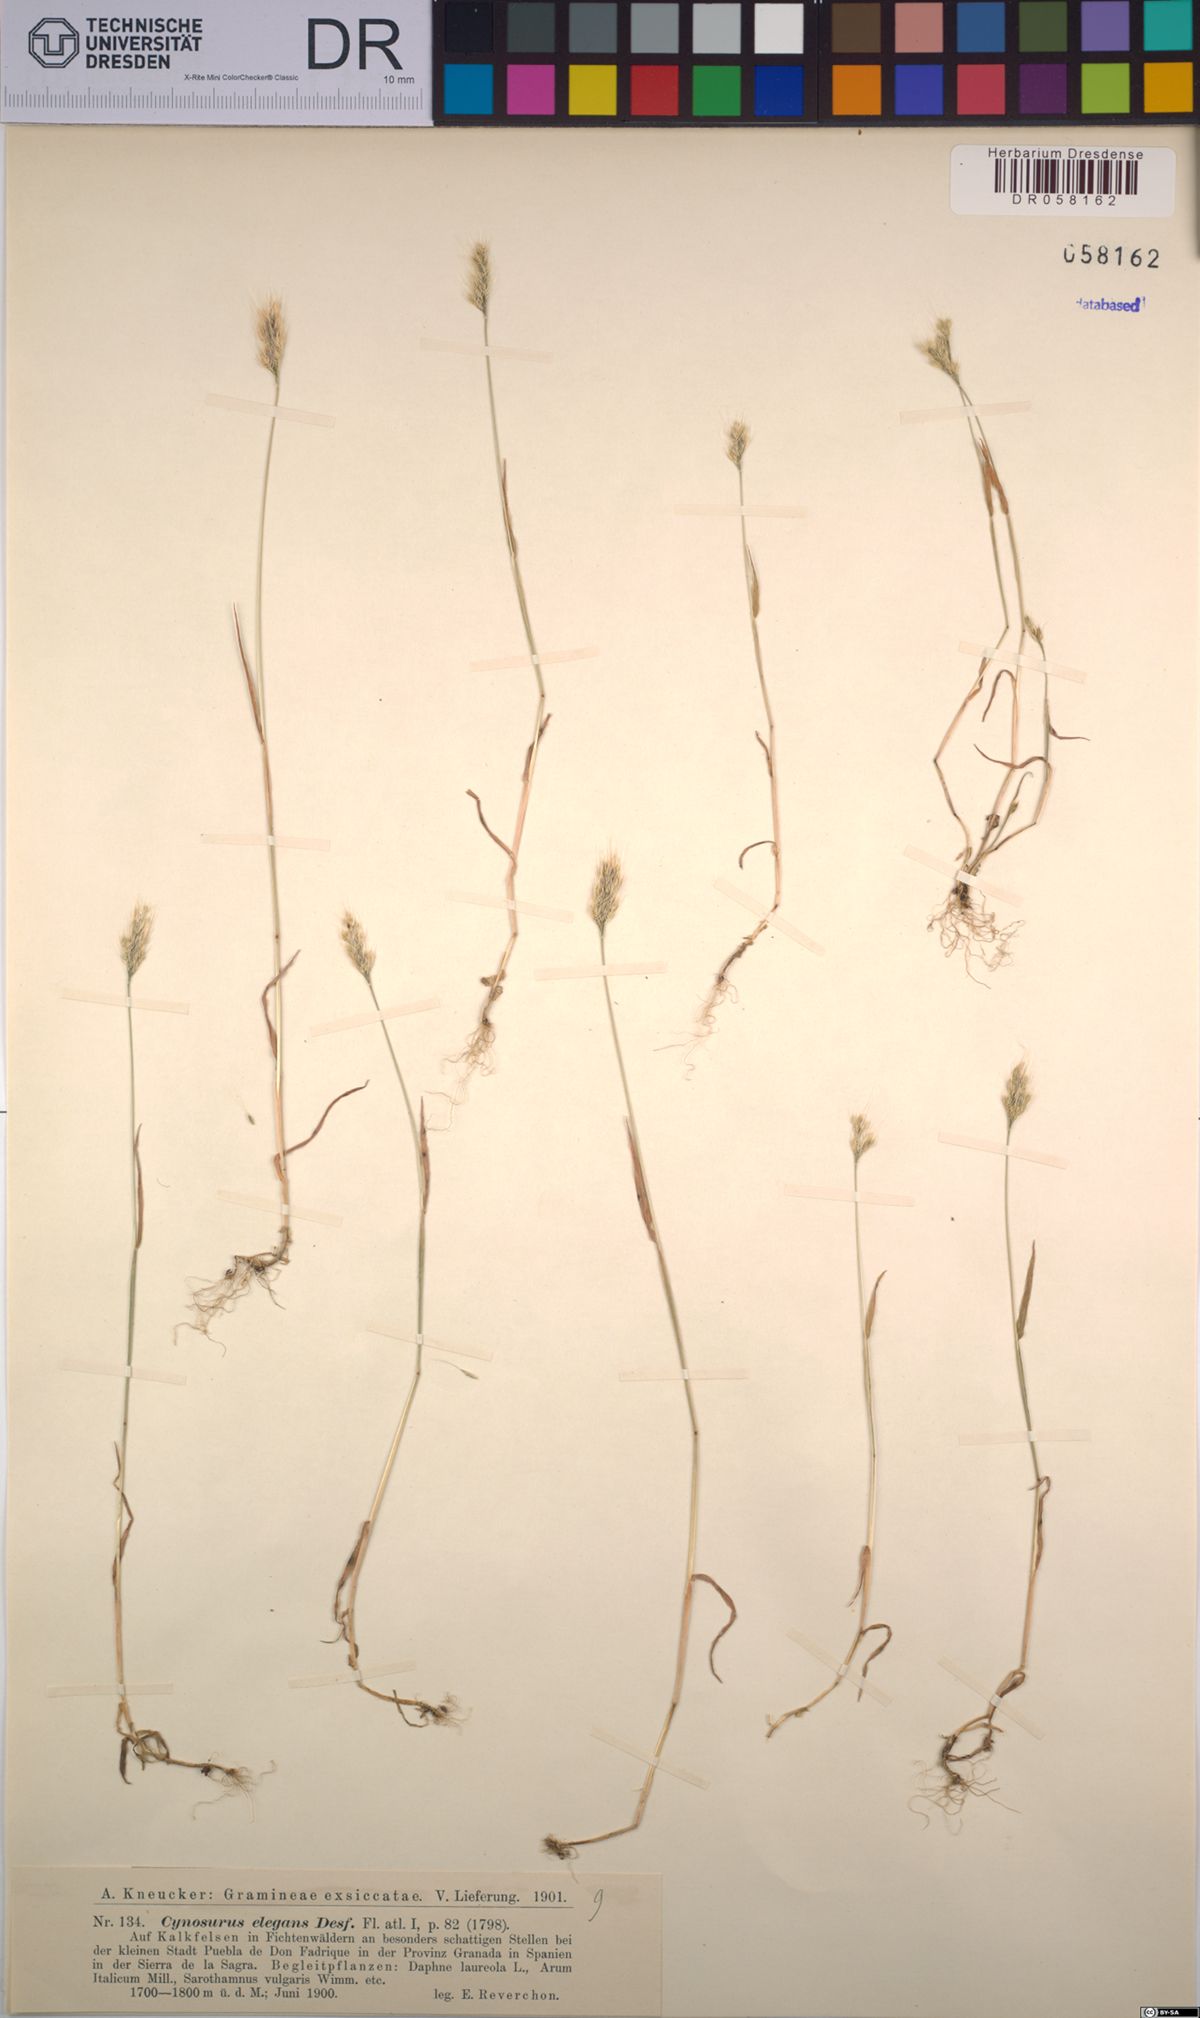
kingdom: Plantae
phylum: Tracheophyta
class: Liliopsida
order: Poales
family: Poaceae
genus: Cynosurus
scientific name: Cynosurus elegans
